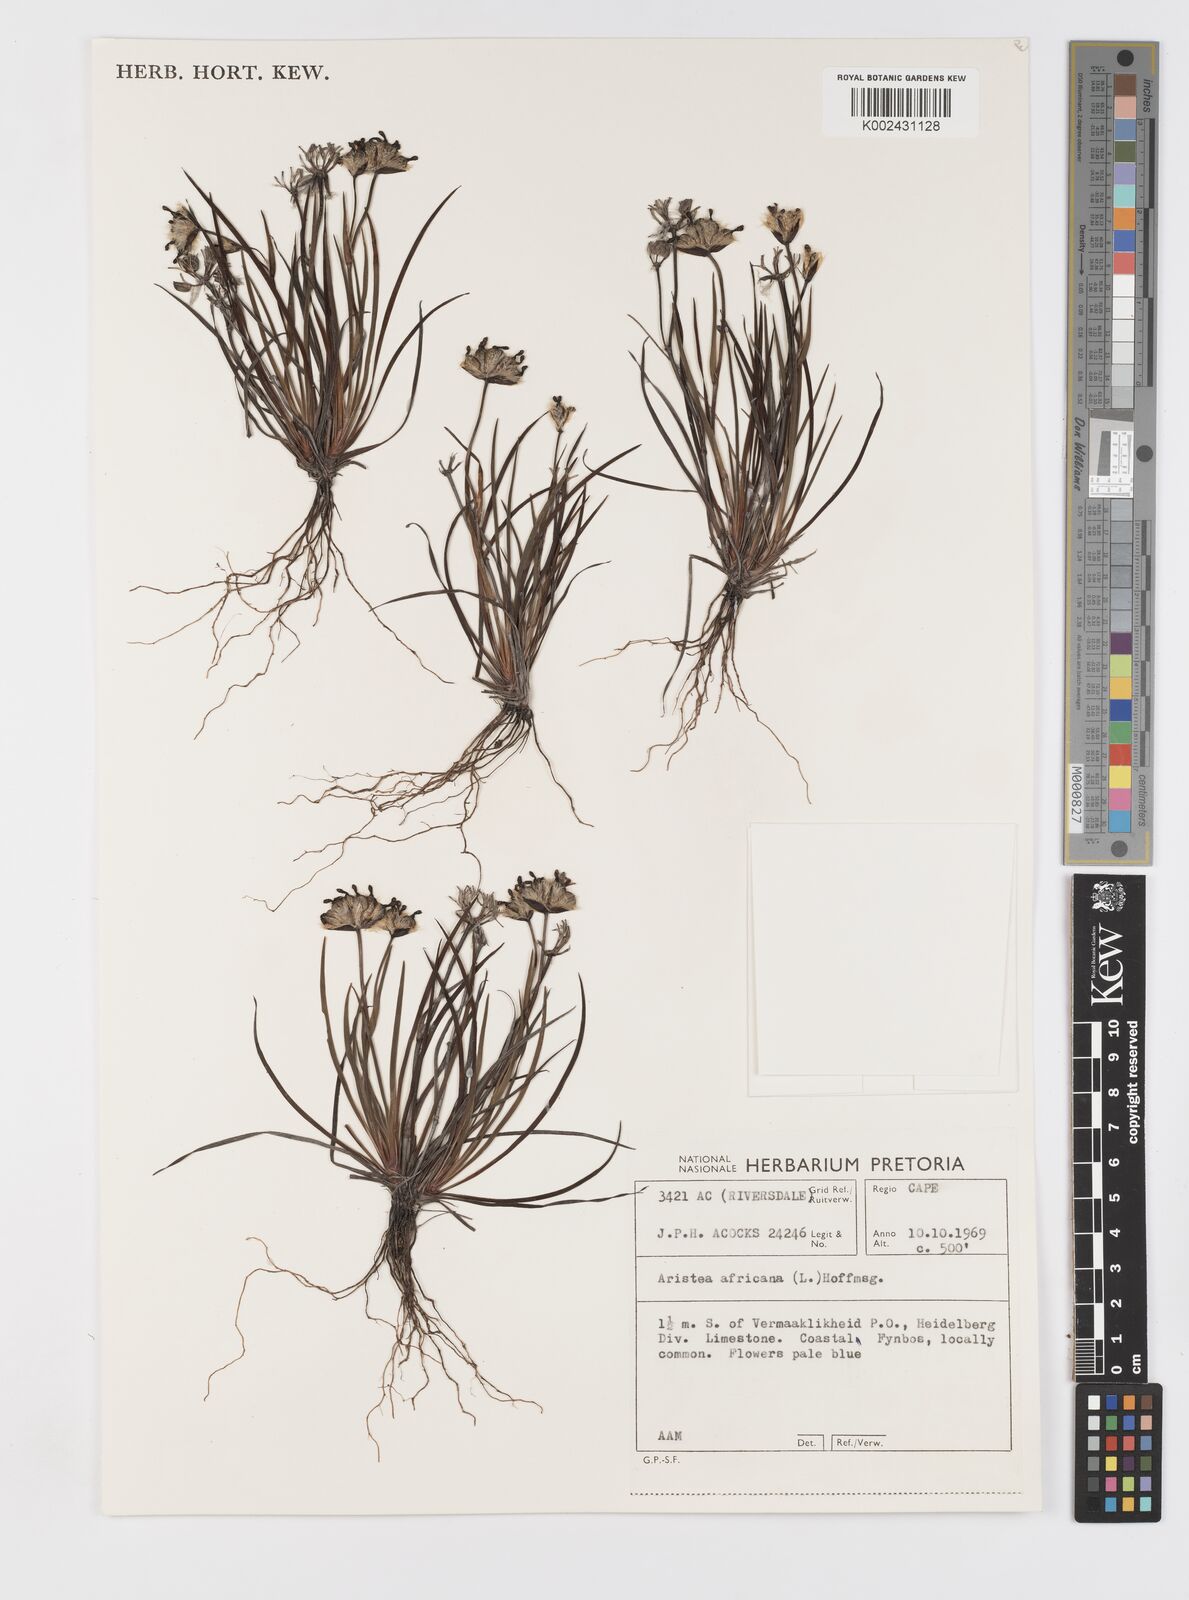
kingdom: Plantae
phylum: Tracheophyta
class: Liliopsida
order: Asparagales
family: Iridaceae
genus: Aristea
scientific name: Aristea africana
